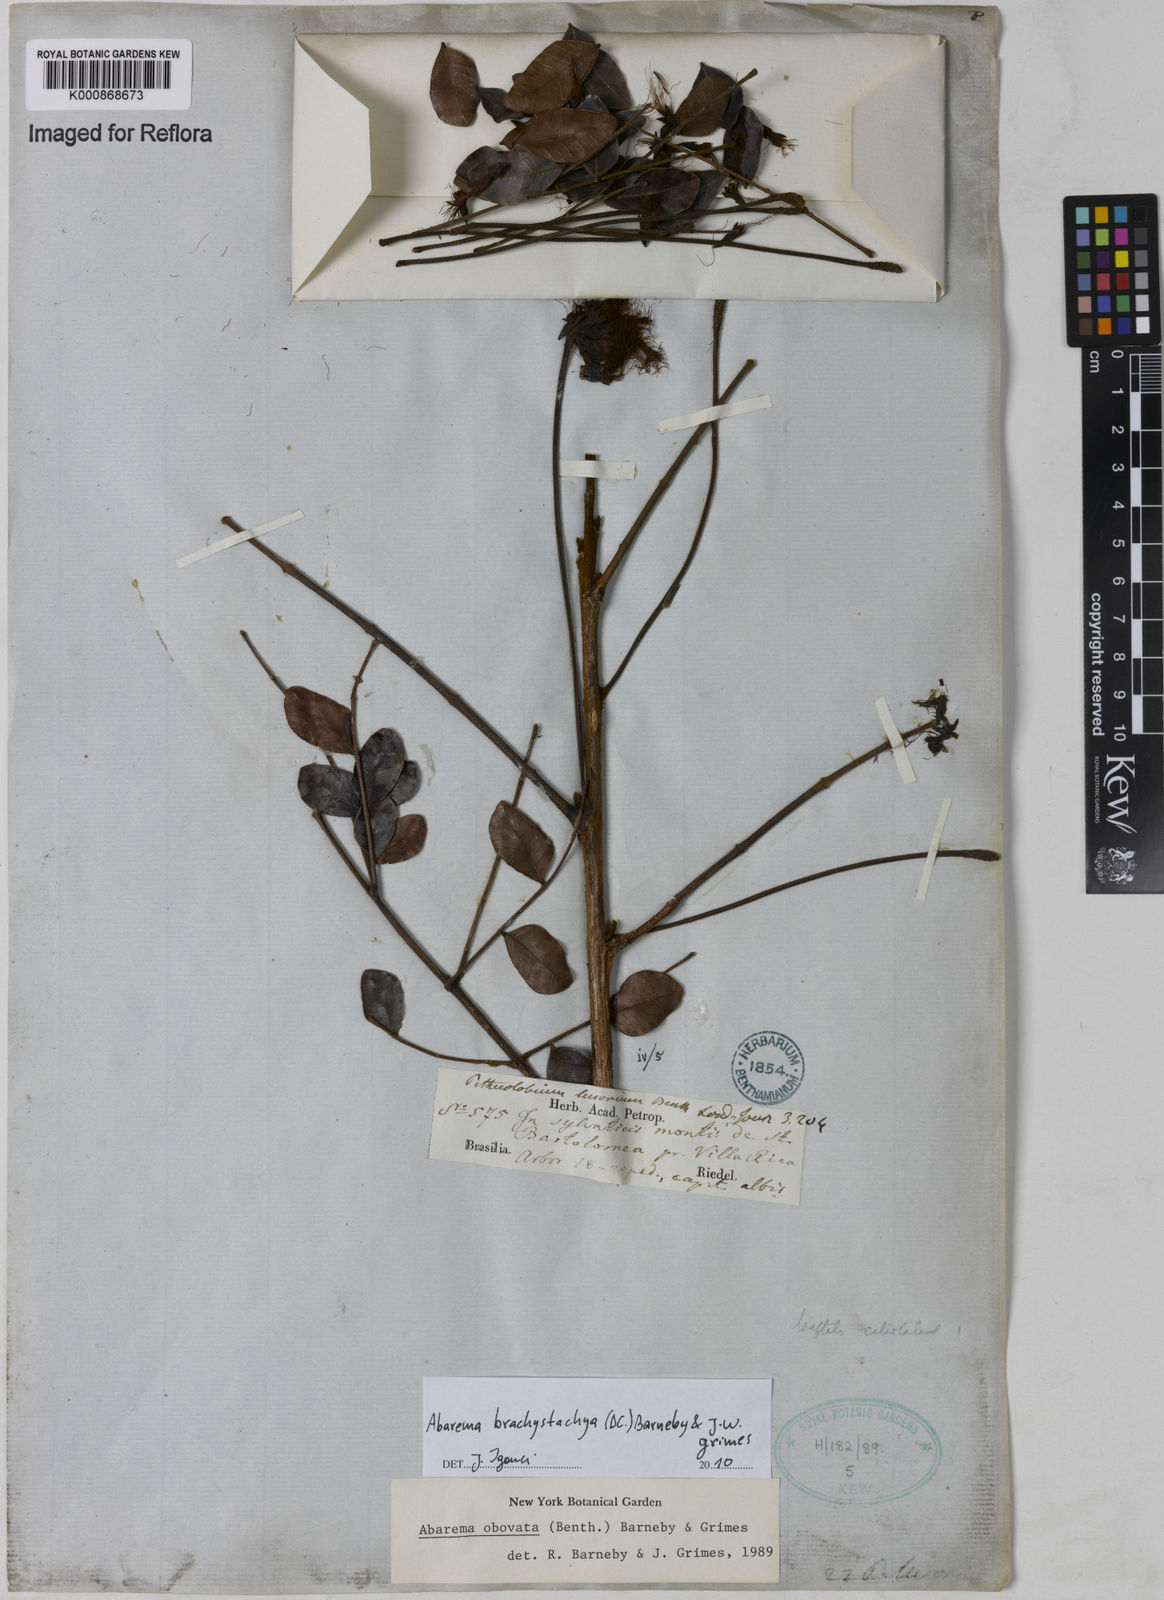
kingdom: Plantae
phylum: Tracheophyta
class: Magnoliopsida
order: Fabales
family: Fabaceae
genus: Abarema
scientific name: Abarema
